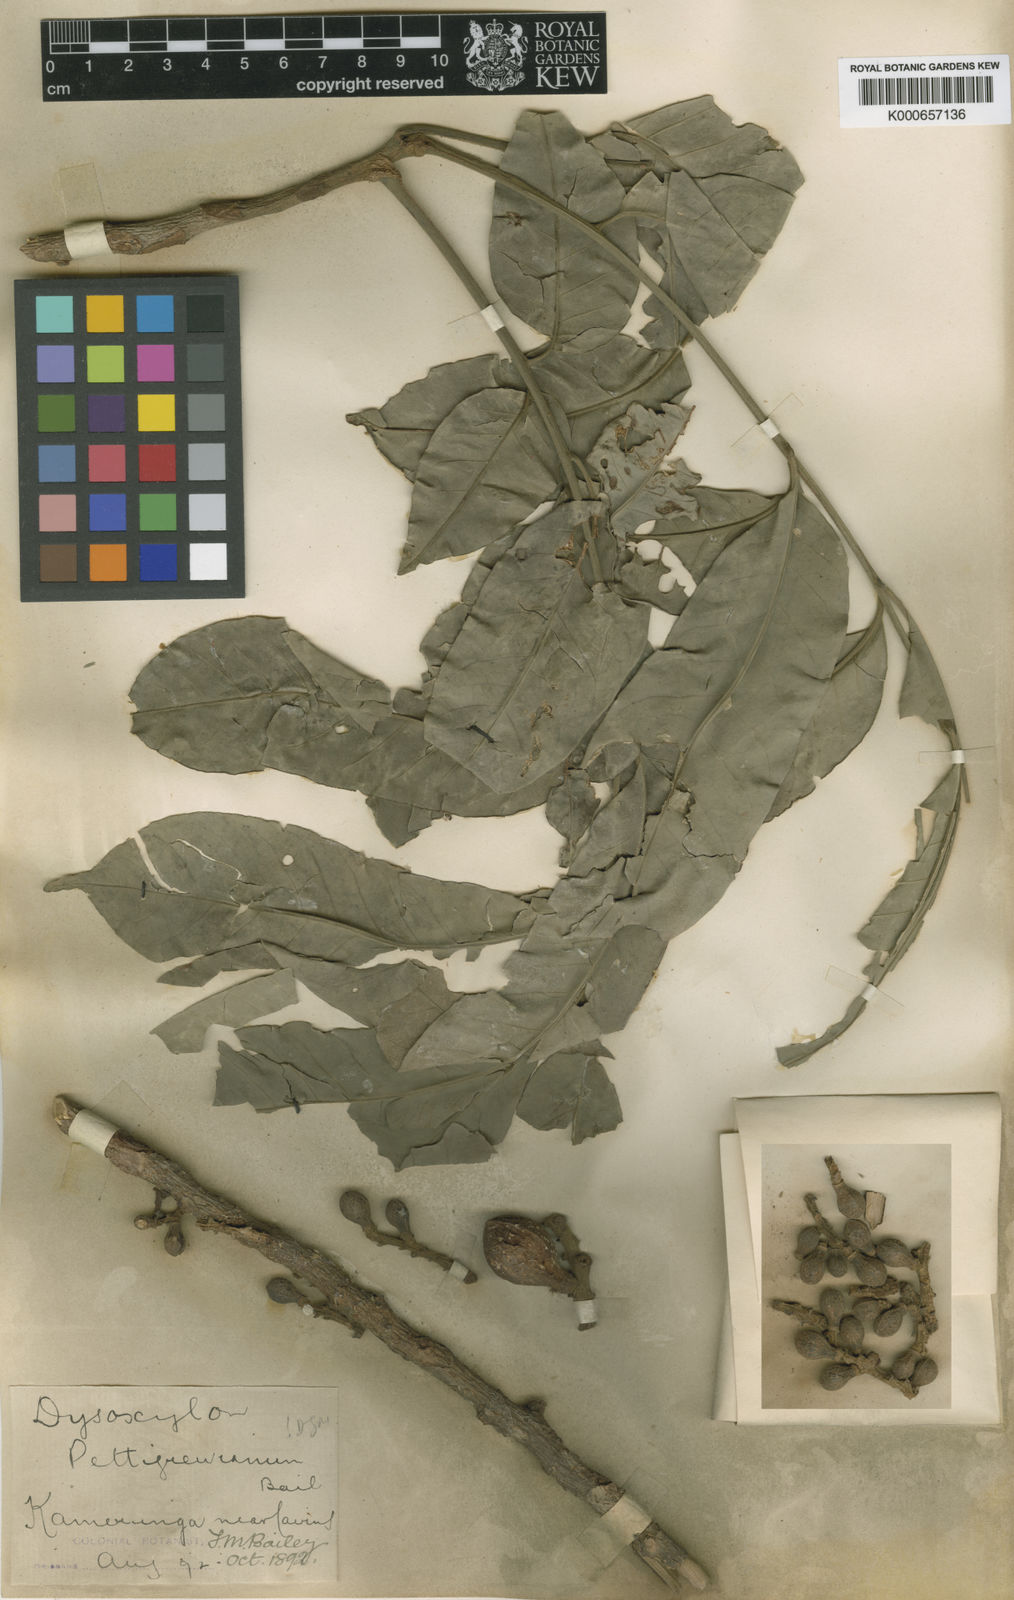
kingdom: Plantae
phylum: Tracheophyta
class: Magnoliopsida
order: Sapindales
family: Meliaceae
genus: Didymocheton
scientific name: Didymocheton pettigrewianus
